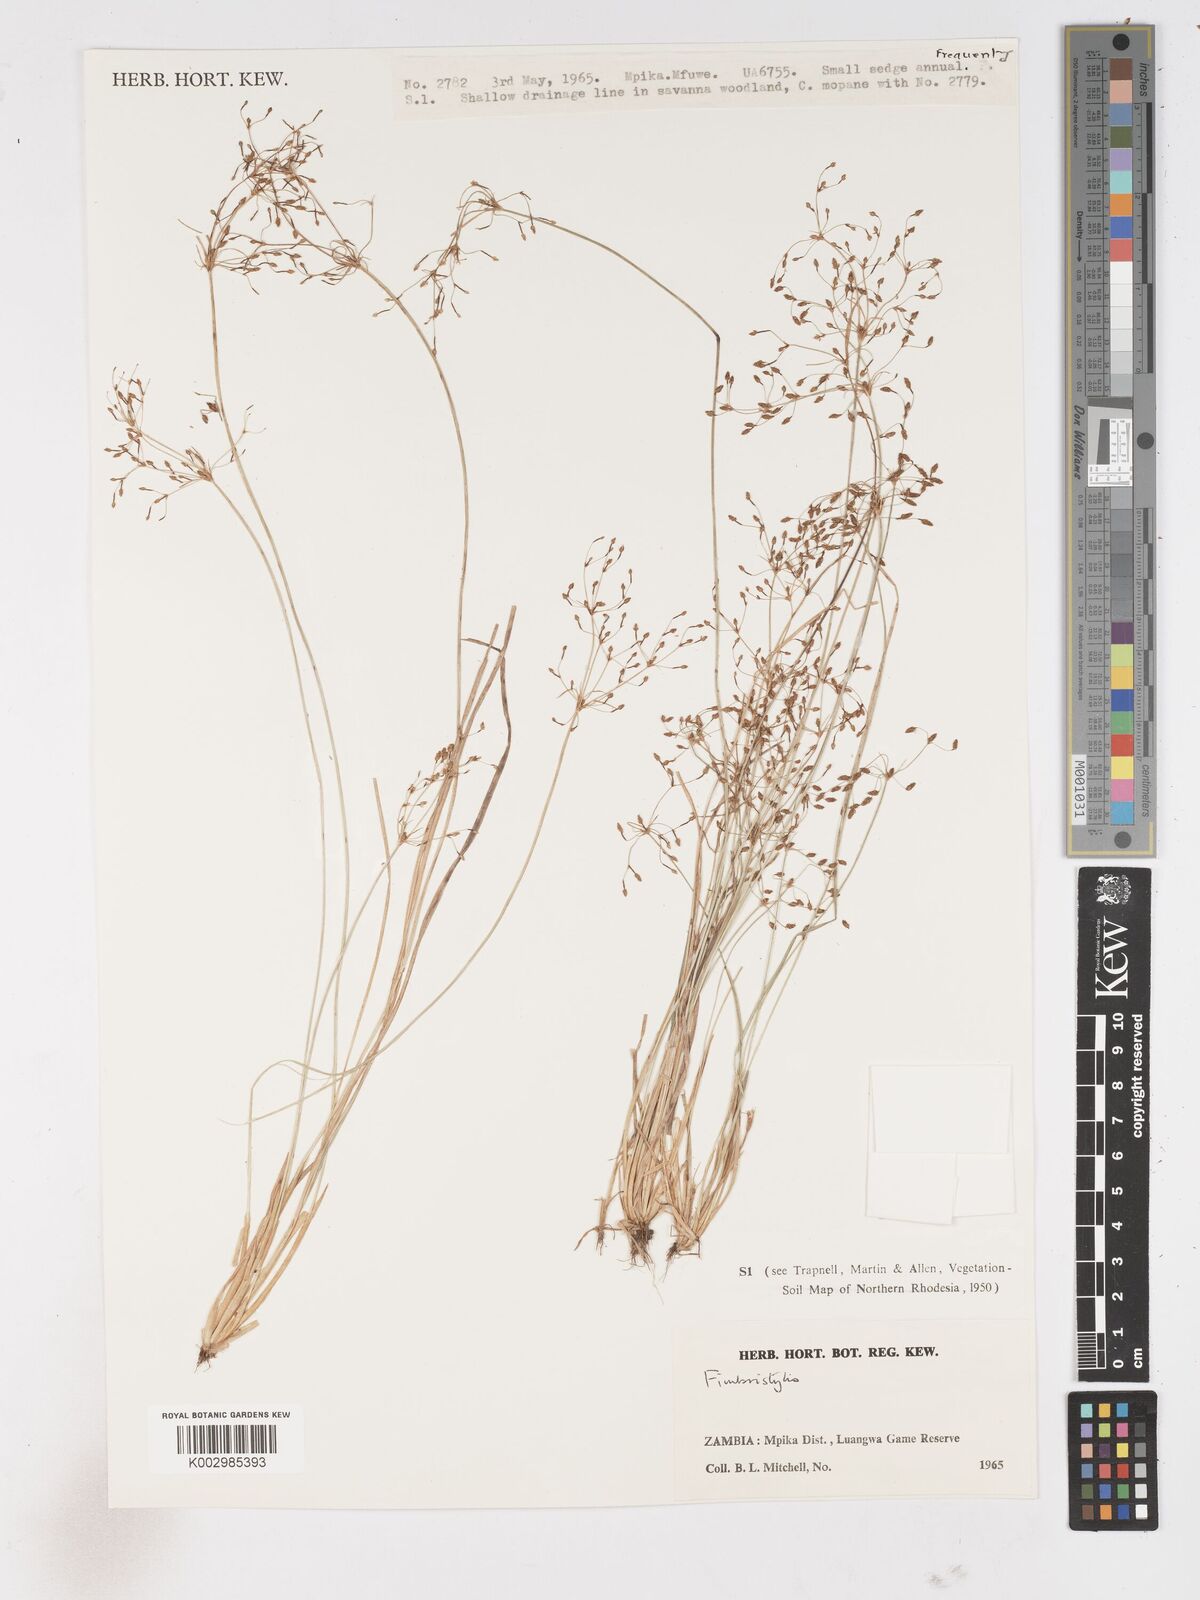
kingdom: Plantae
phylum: Tracheophyta
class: Liliopsida
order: Poales
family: Cyperaceae
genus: Fimbristylis
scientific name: Fimbristylis
